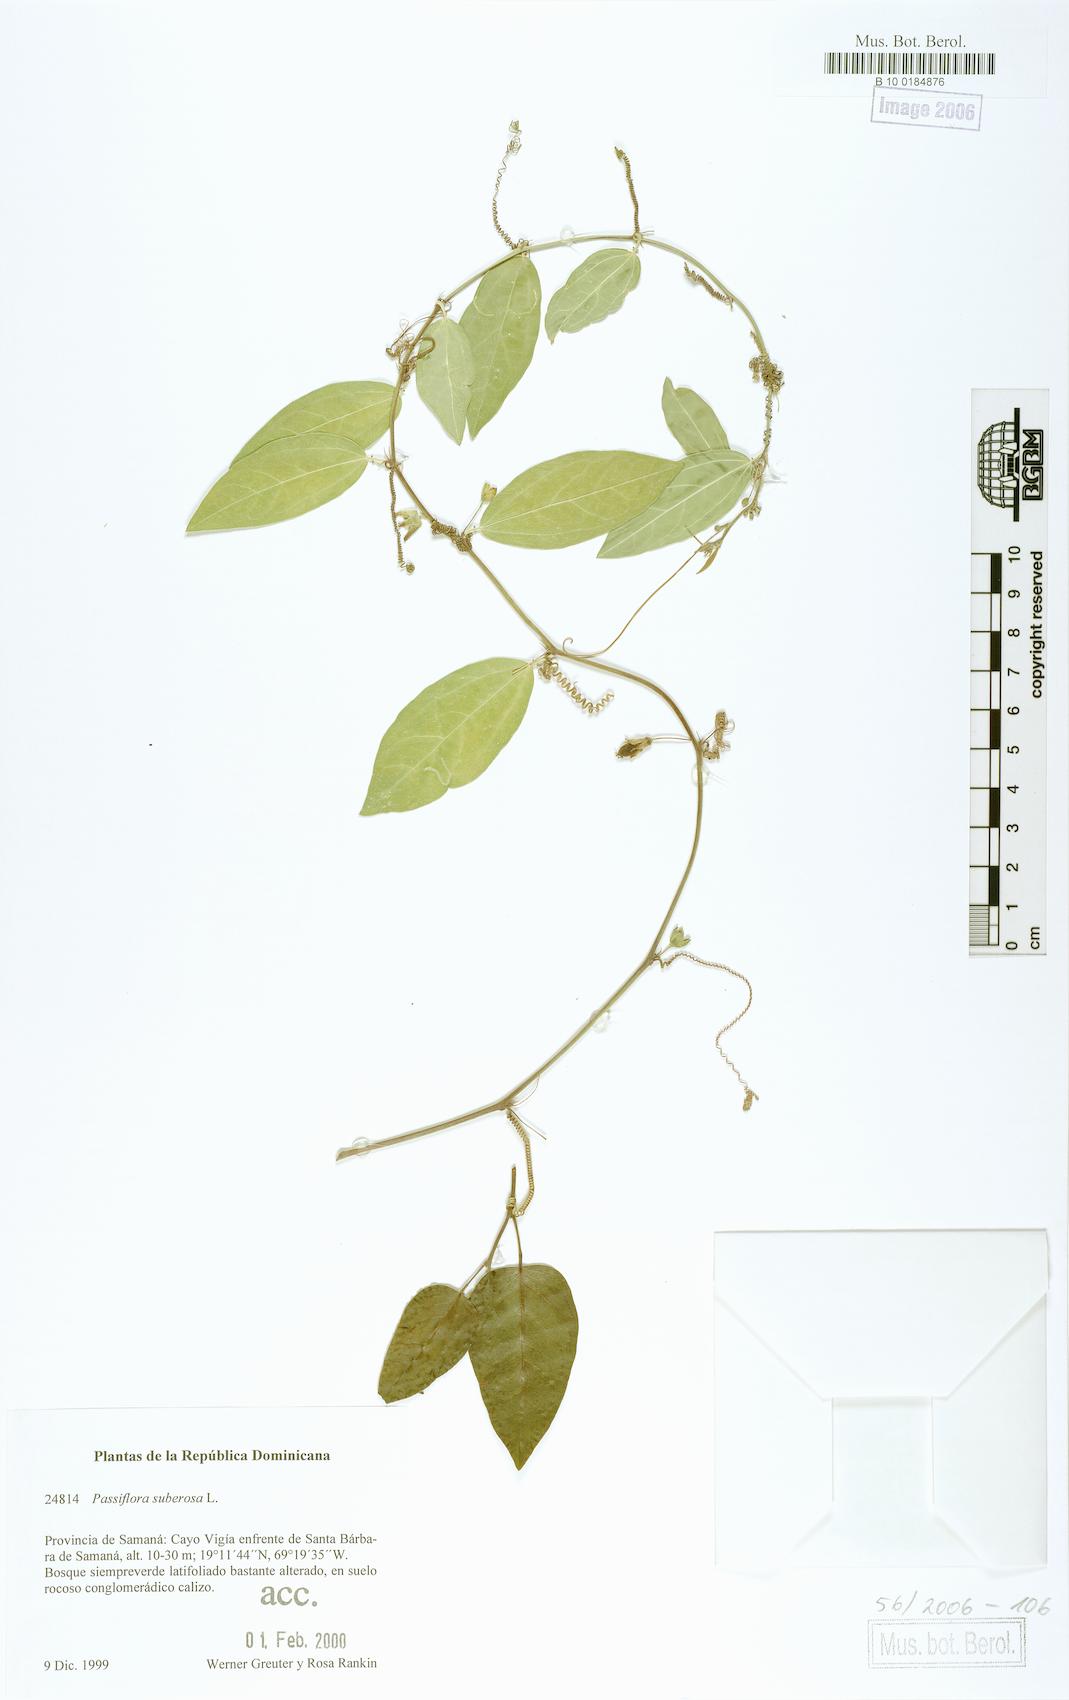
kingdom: Plantae
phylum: Tracheophyta
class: Magnoliopsida
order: Malpighiales
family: Passifloraceae
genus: Passiflora
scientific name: Passiflora suberosa
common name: Wild passionfruit
